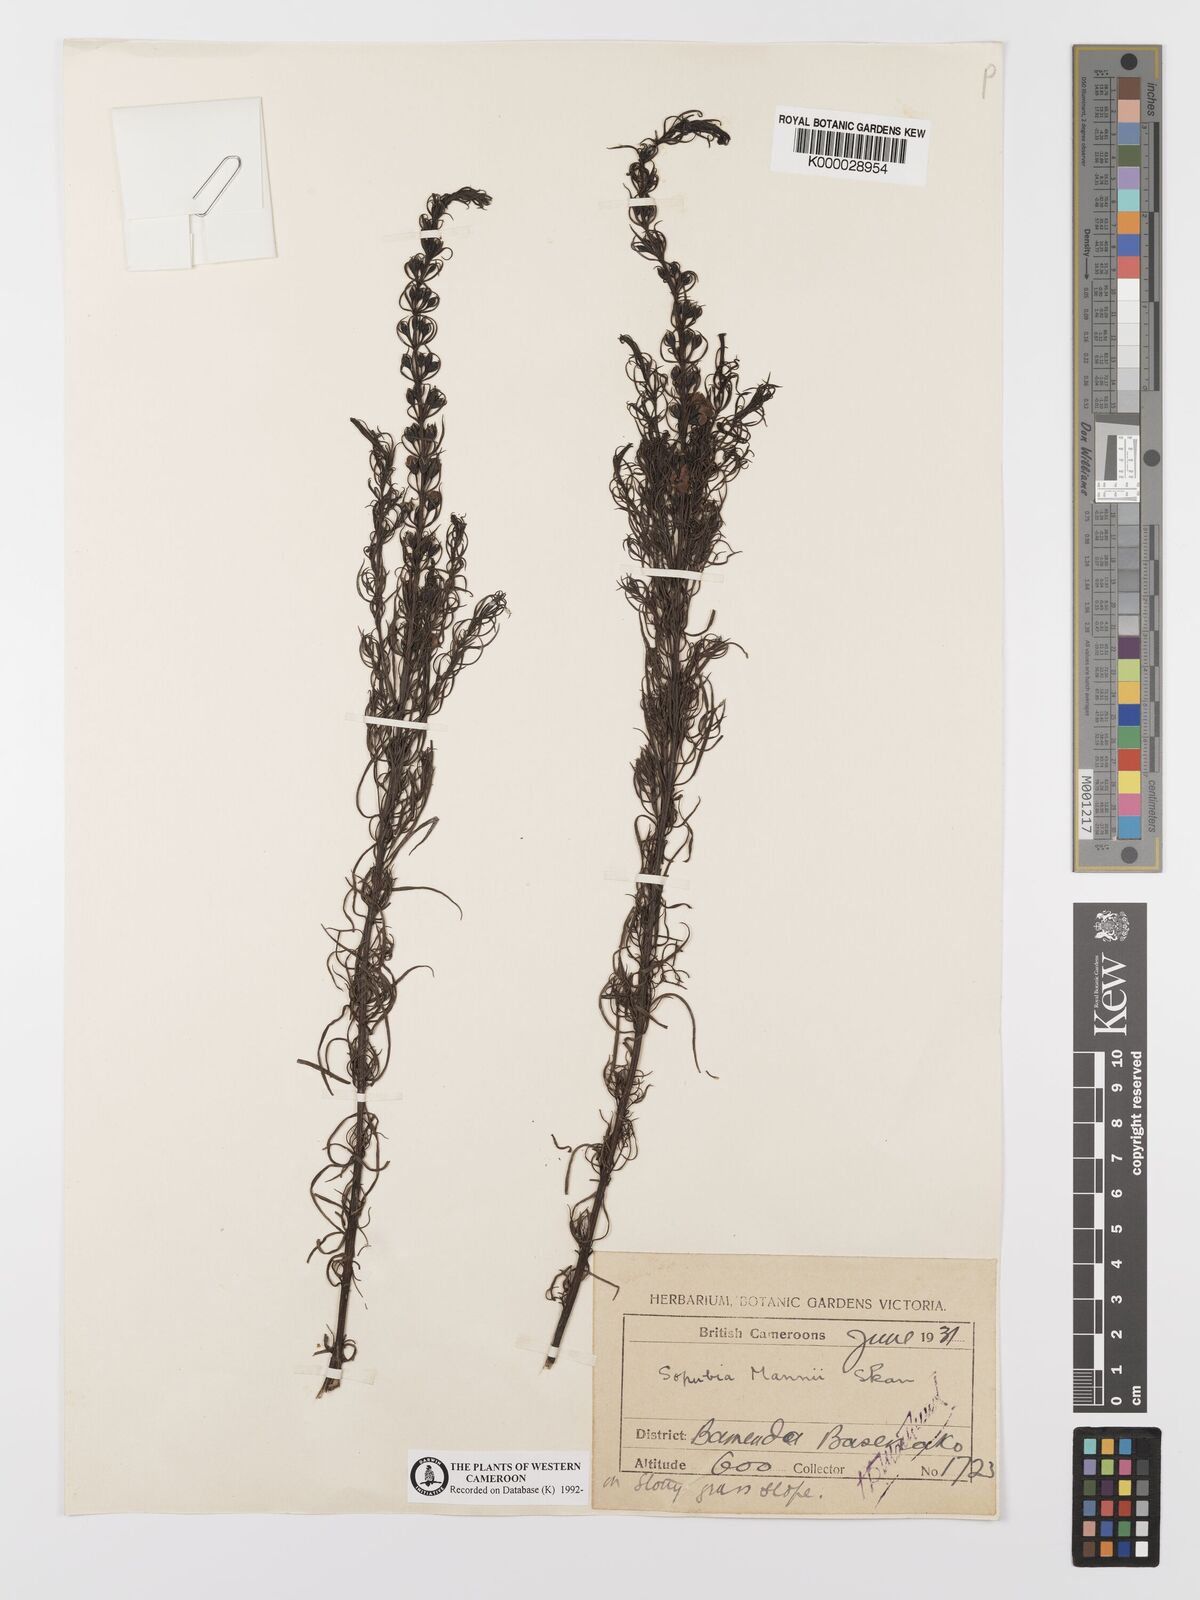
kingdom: Plantae
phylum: Tracheophyta
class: Magnoliopsida
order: Lamiales
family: Orobanchaceae
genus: Sopubia
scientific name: Sopubia mannii
